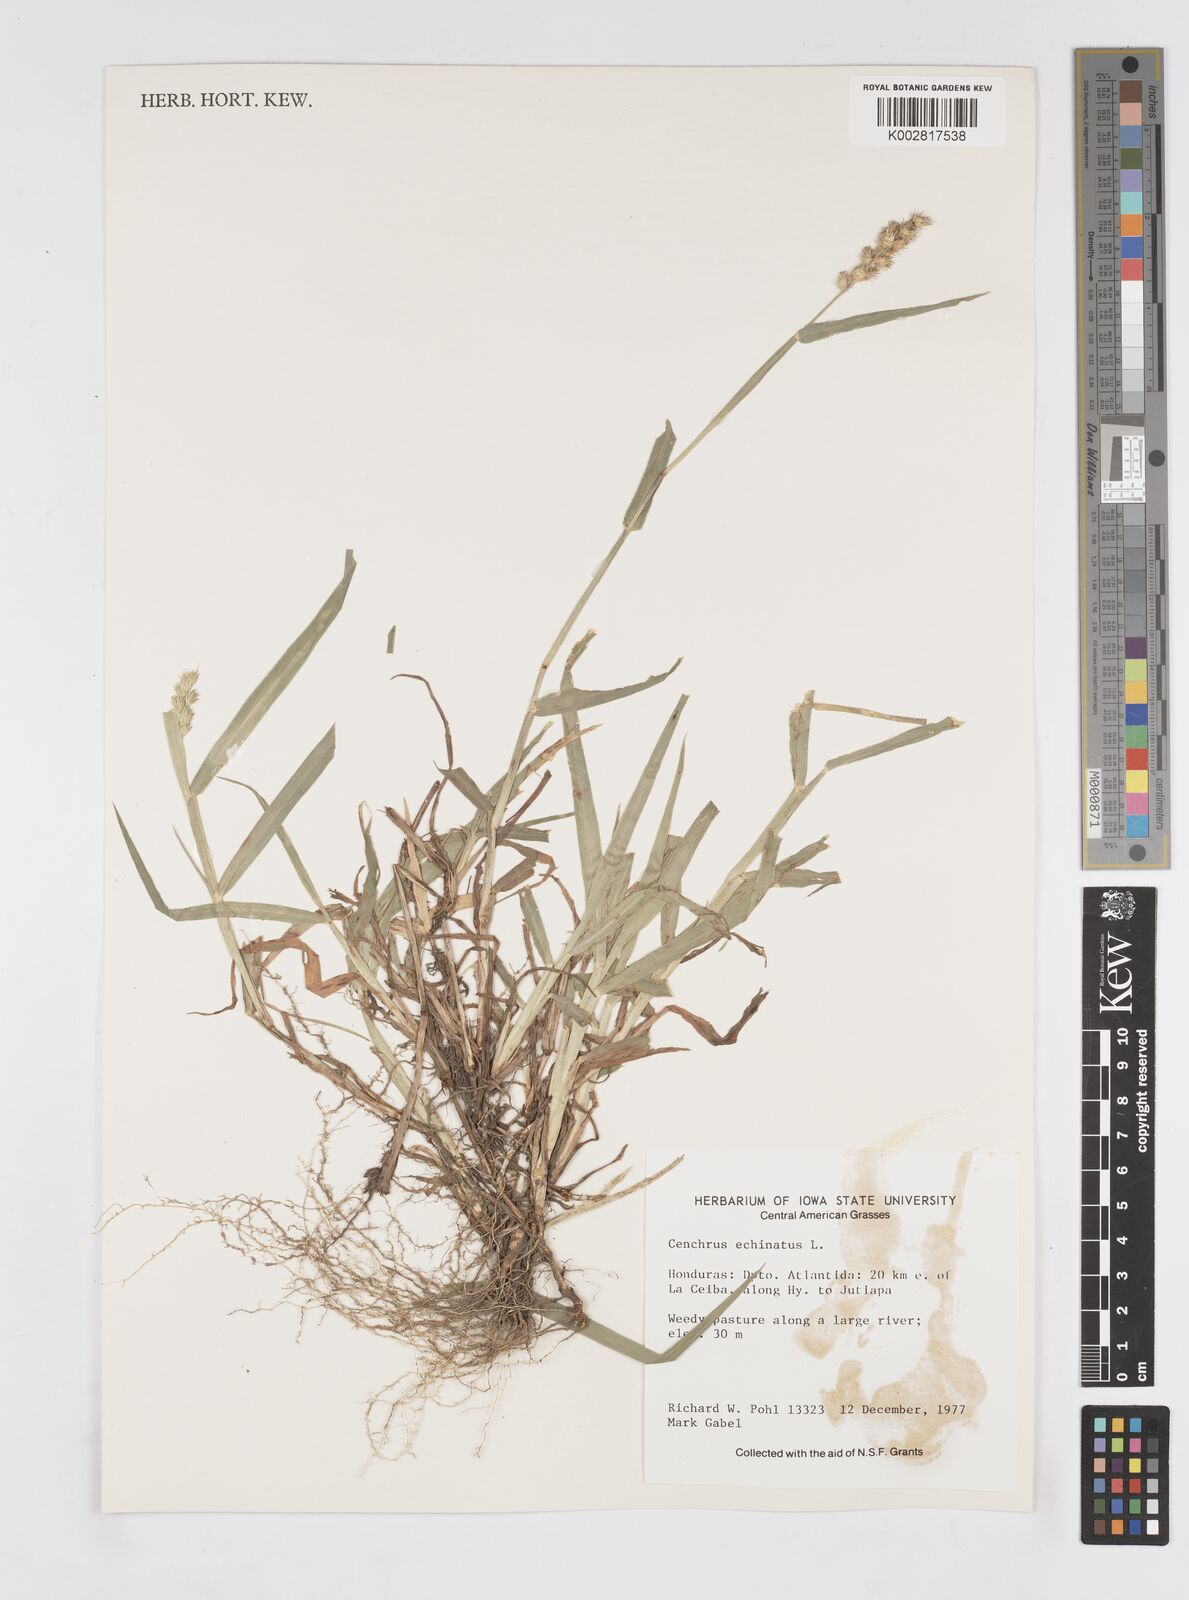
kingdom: Plantae
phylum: Tracheophyta
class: Liliopsida
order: Poales
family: Poaceae
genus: Cenchrus
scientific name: Cenchrus
